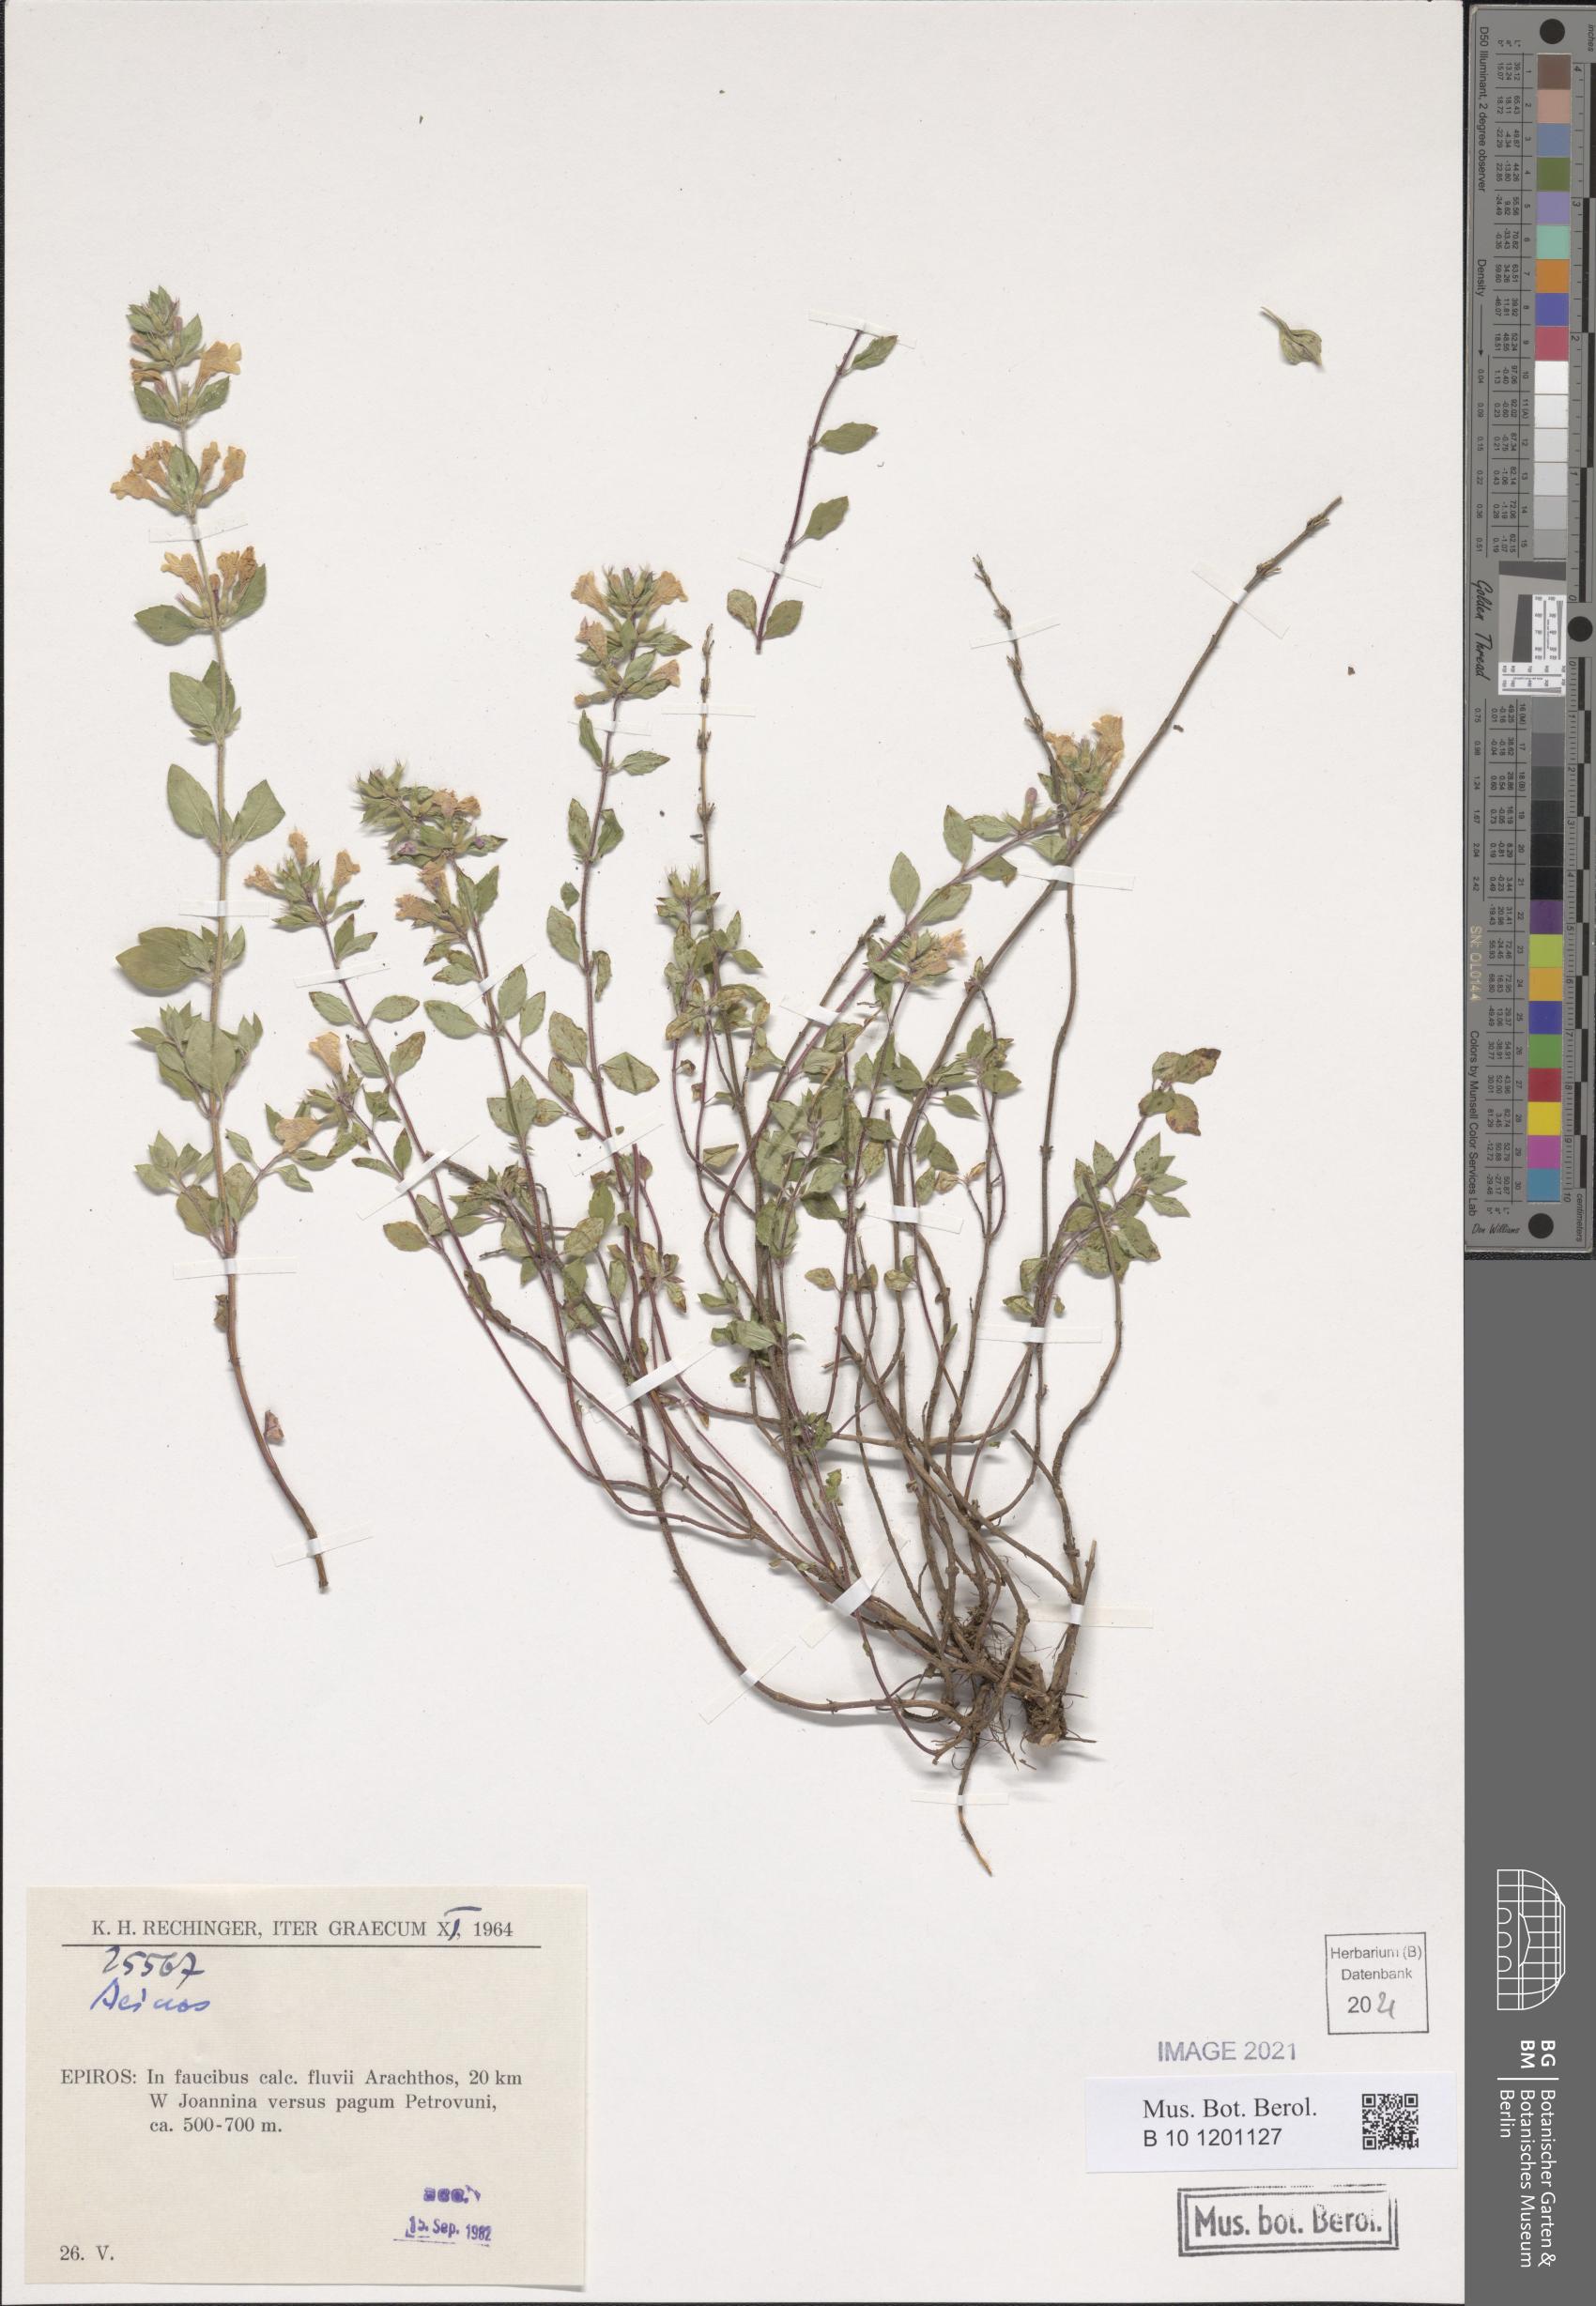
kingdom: Plantae
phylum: Tracheophyta
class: Magnoliopsida
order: Lamiales
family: Lamiaceae
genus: Acinos
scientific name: Acinos
